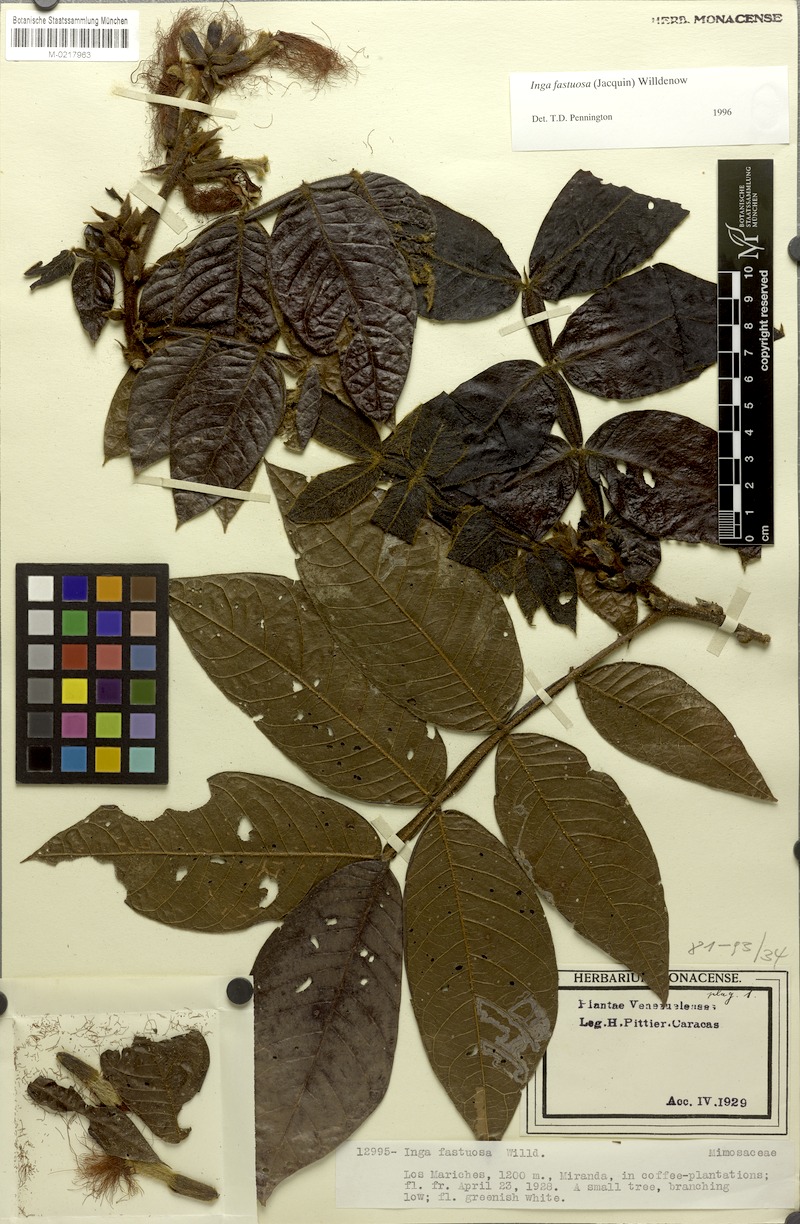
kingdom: Plantae
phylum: Tracheophyta
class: Magnoliopsida
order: Fabales
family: Fabaceae
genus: Inga
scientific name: Inga fastuosa
